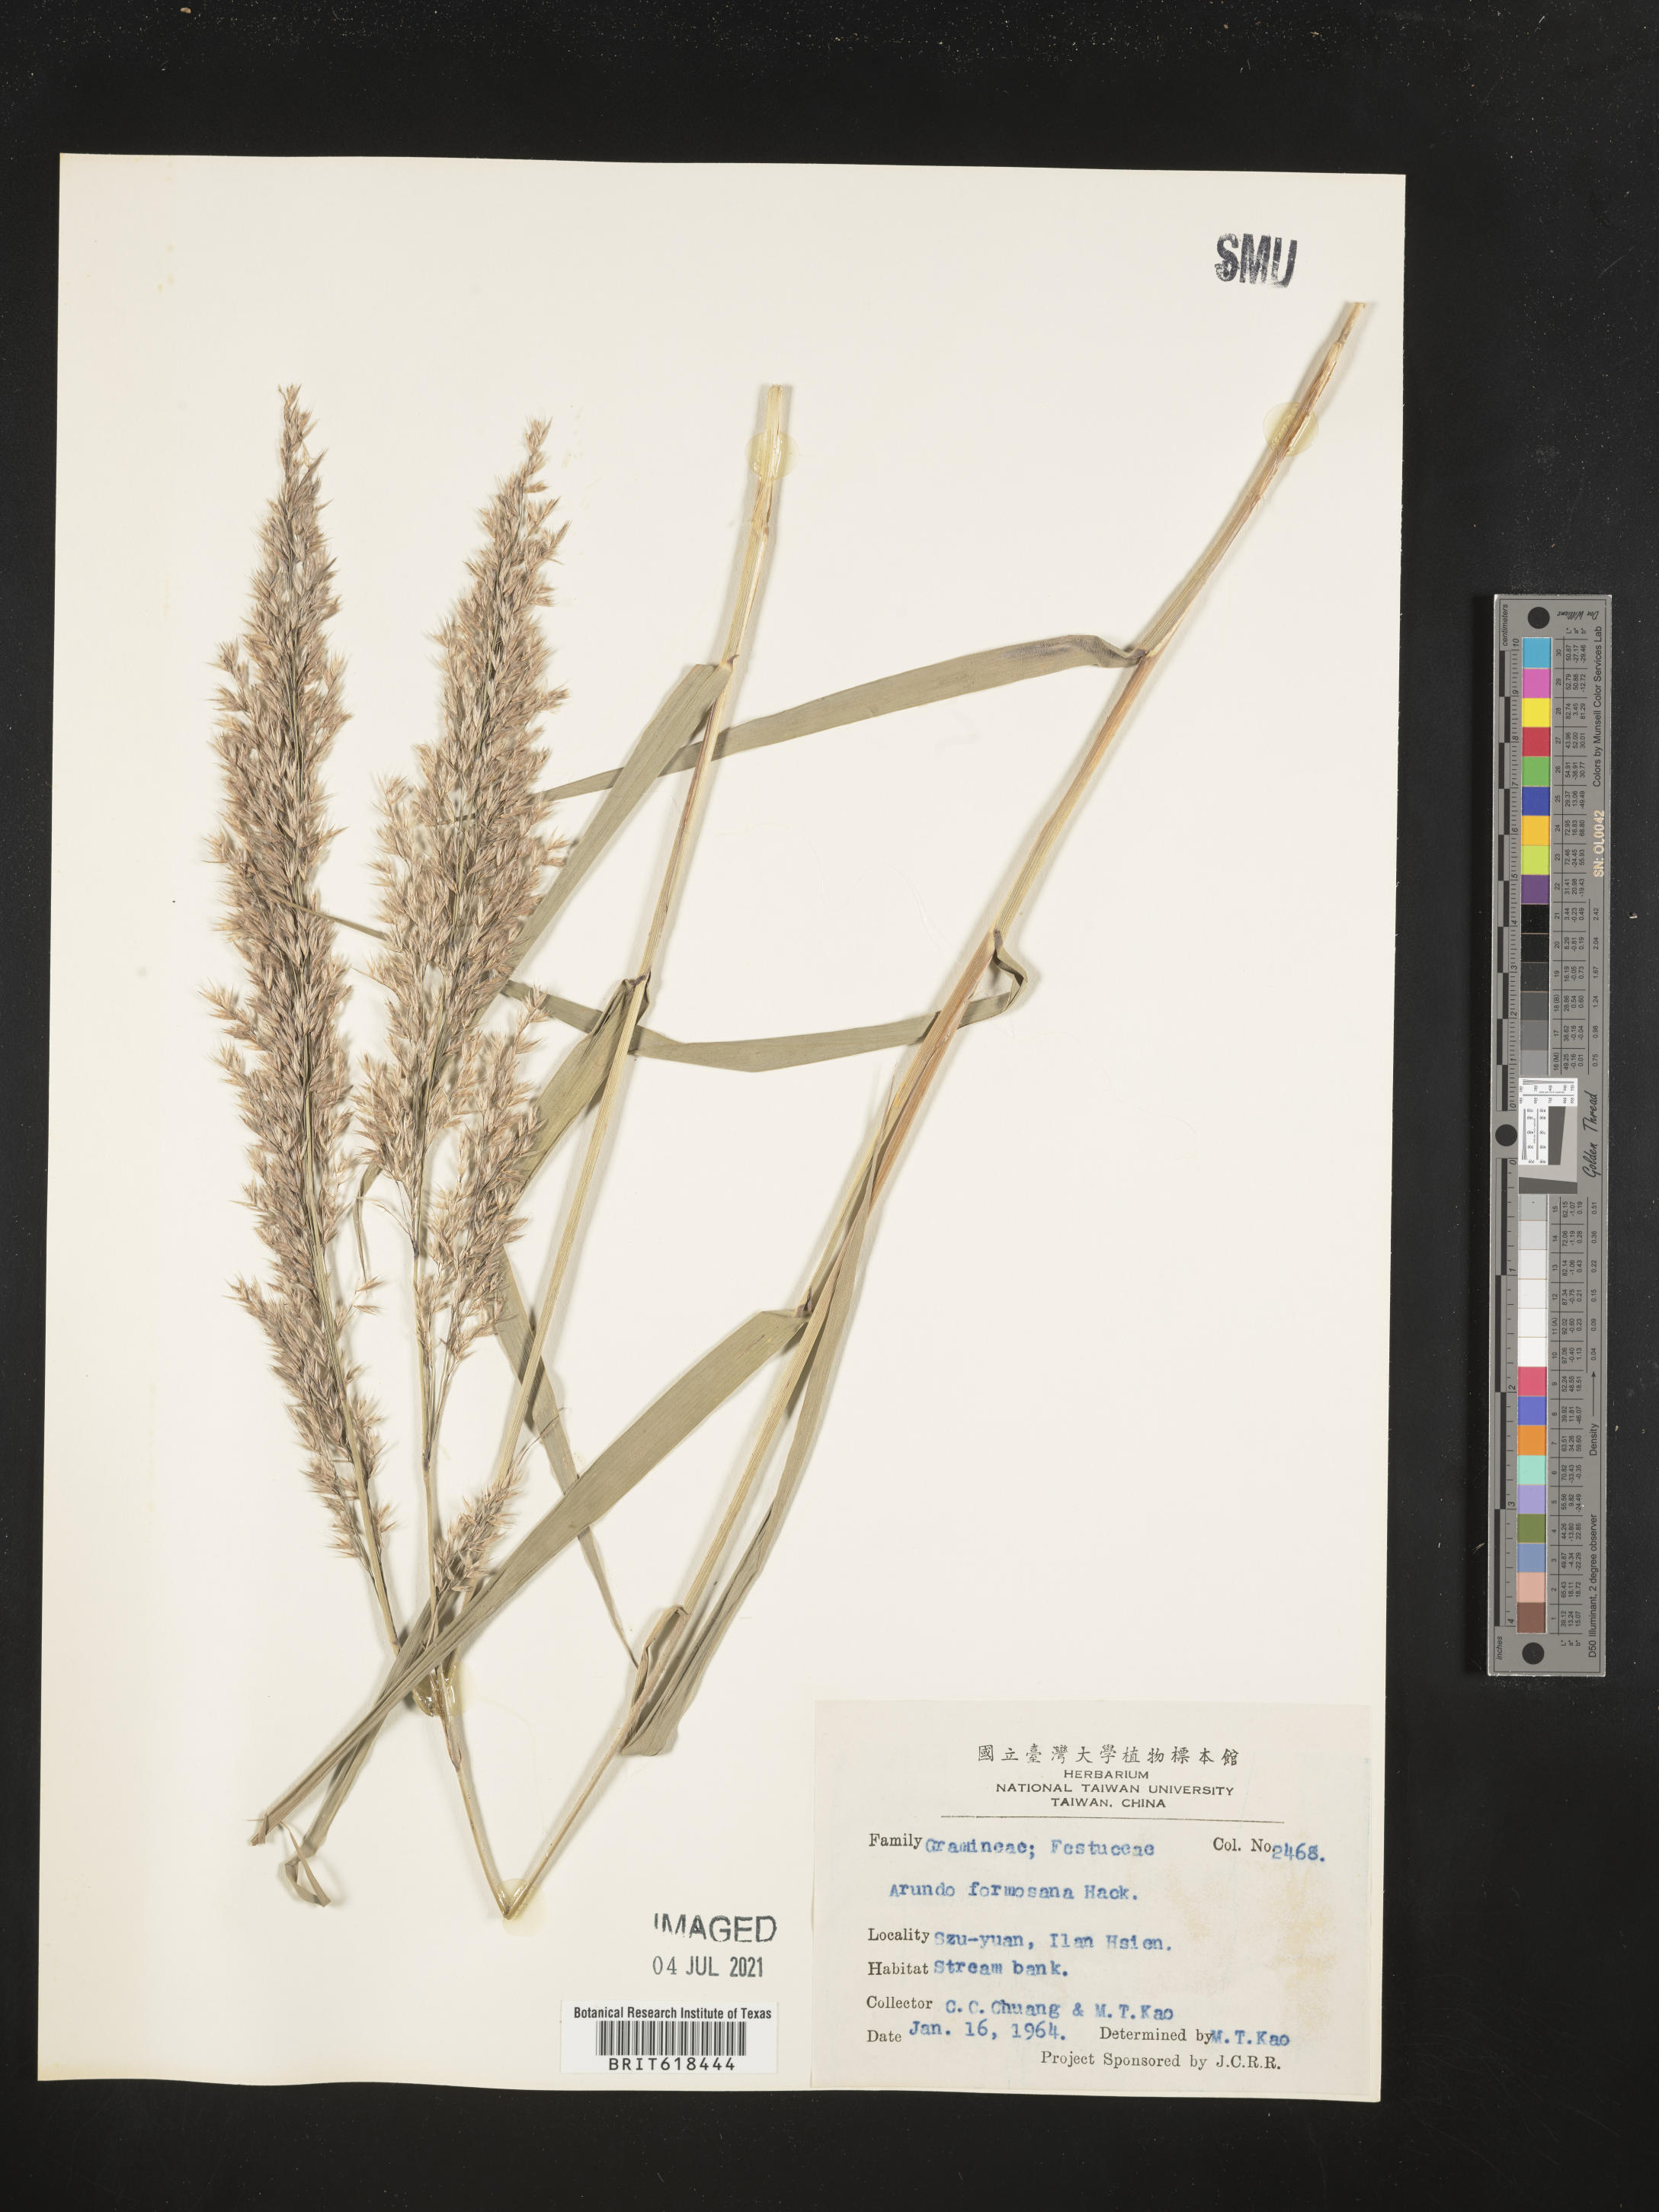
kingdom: Plantae
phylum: Tracheophyta
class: Liliopsida
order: Poales
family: Poaceae
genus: Arundo
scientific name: Arundo formosana
